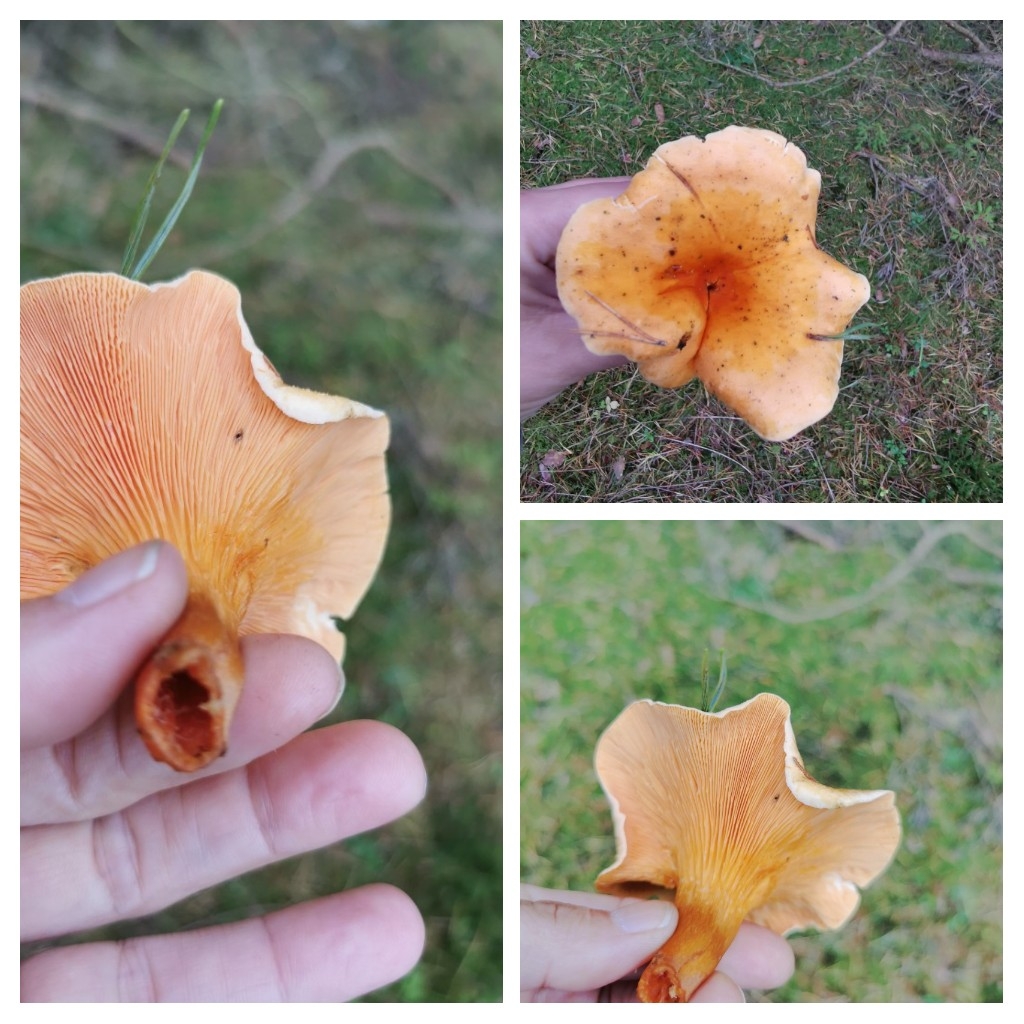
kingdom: Fungi
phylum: Basidiomycota
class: Agaricomycetes
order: Boletales
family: Hygrophoropsidaceae
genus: Hygrophoropsis
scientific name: Hygrophoropsis aurantiaca
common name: almindelig orangekantarel
